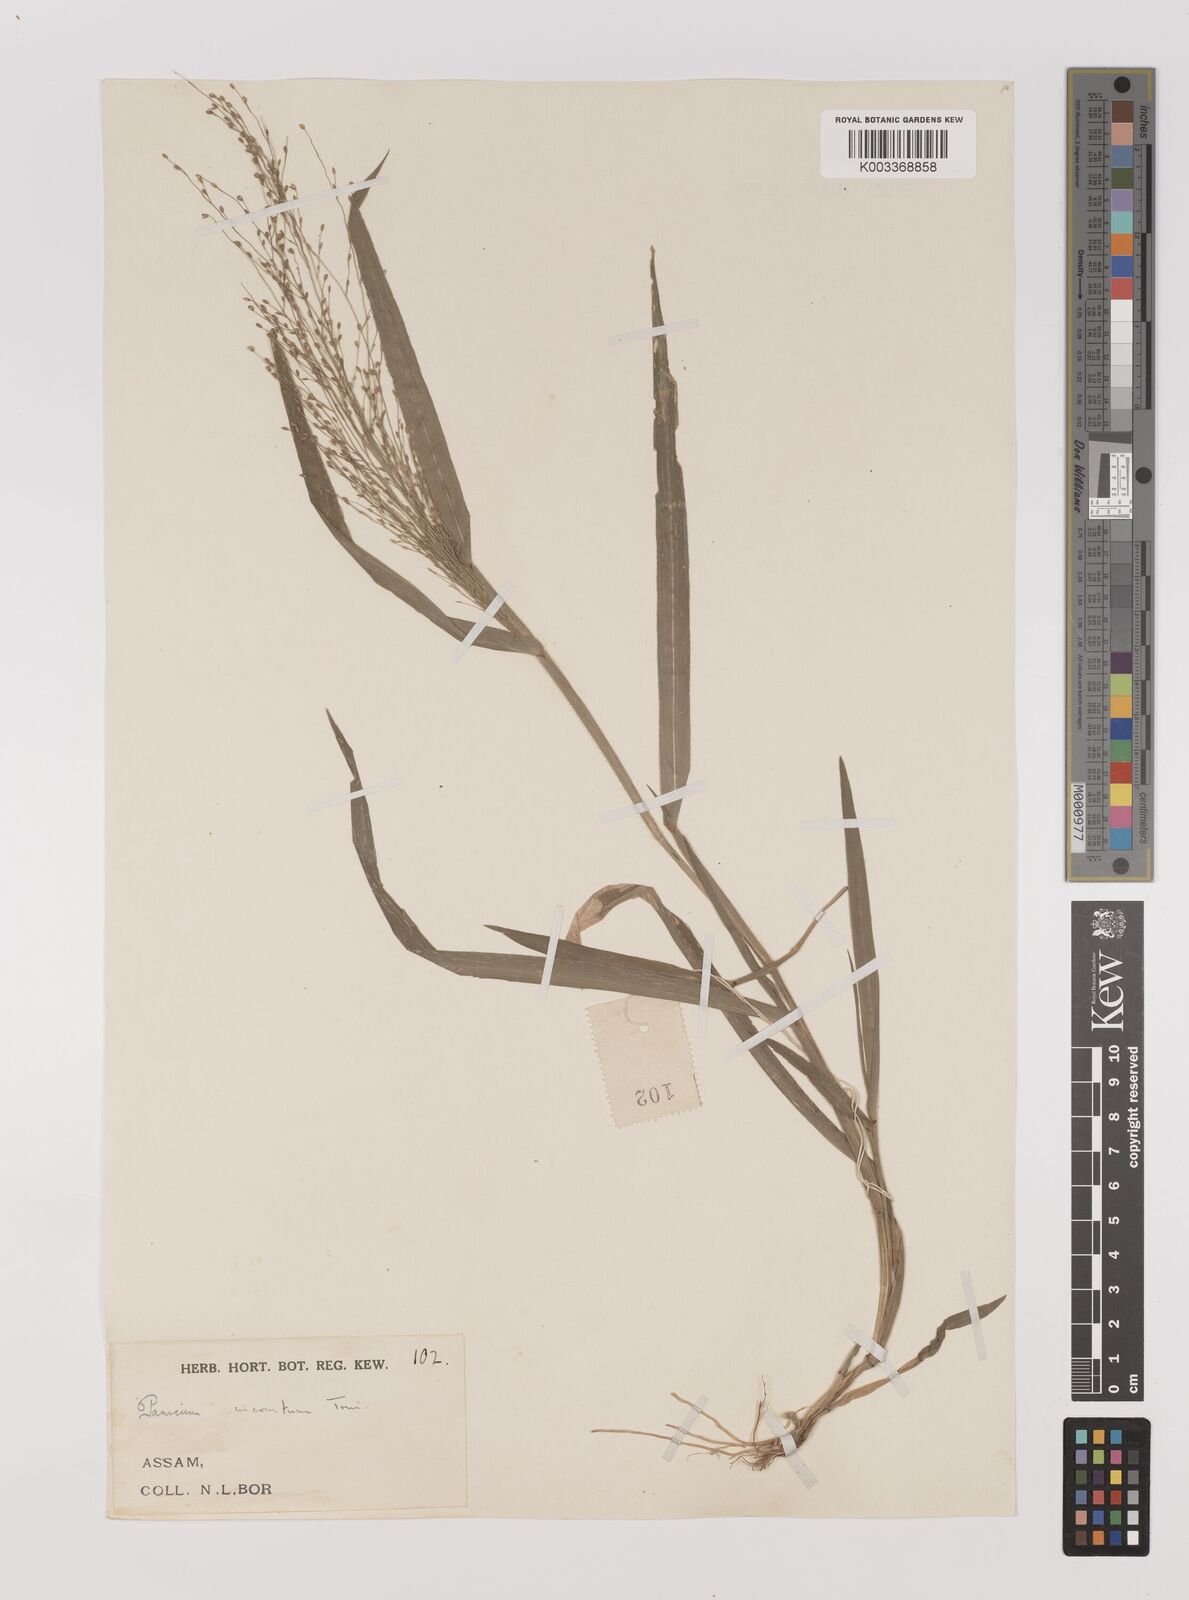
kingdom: Plantae
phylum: Tracheophyta
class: Liliopsida
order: Poales
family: Poaceae
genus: Panicum
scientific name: Panicum
